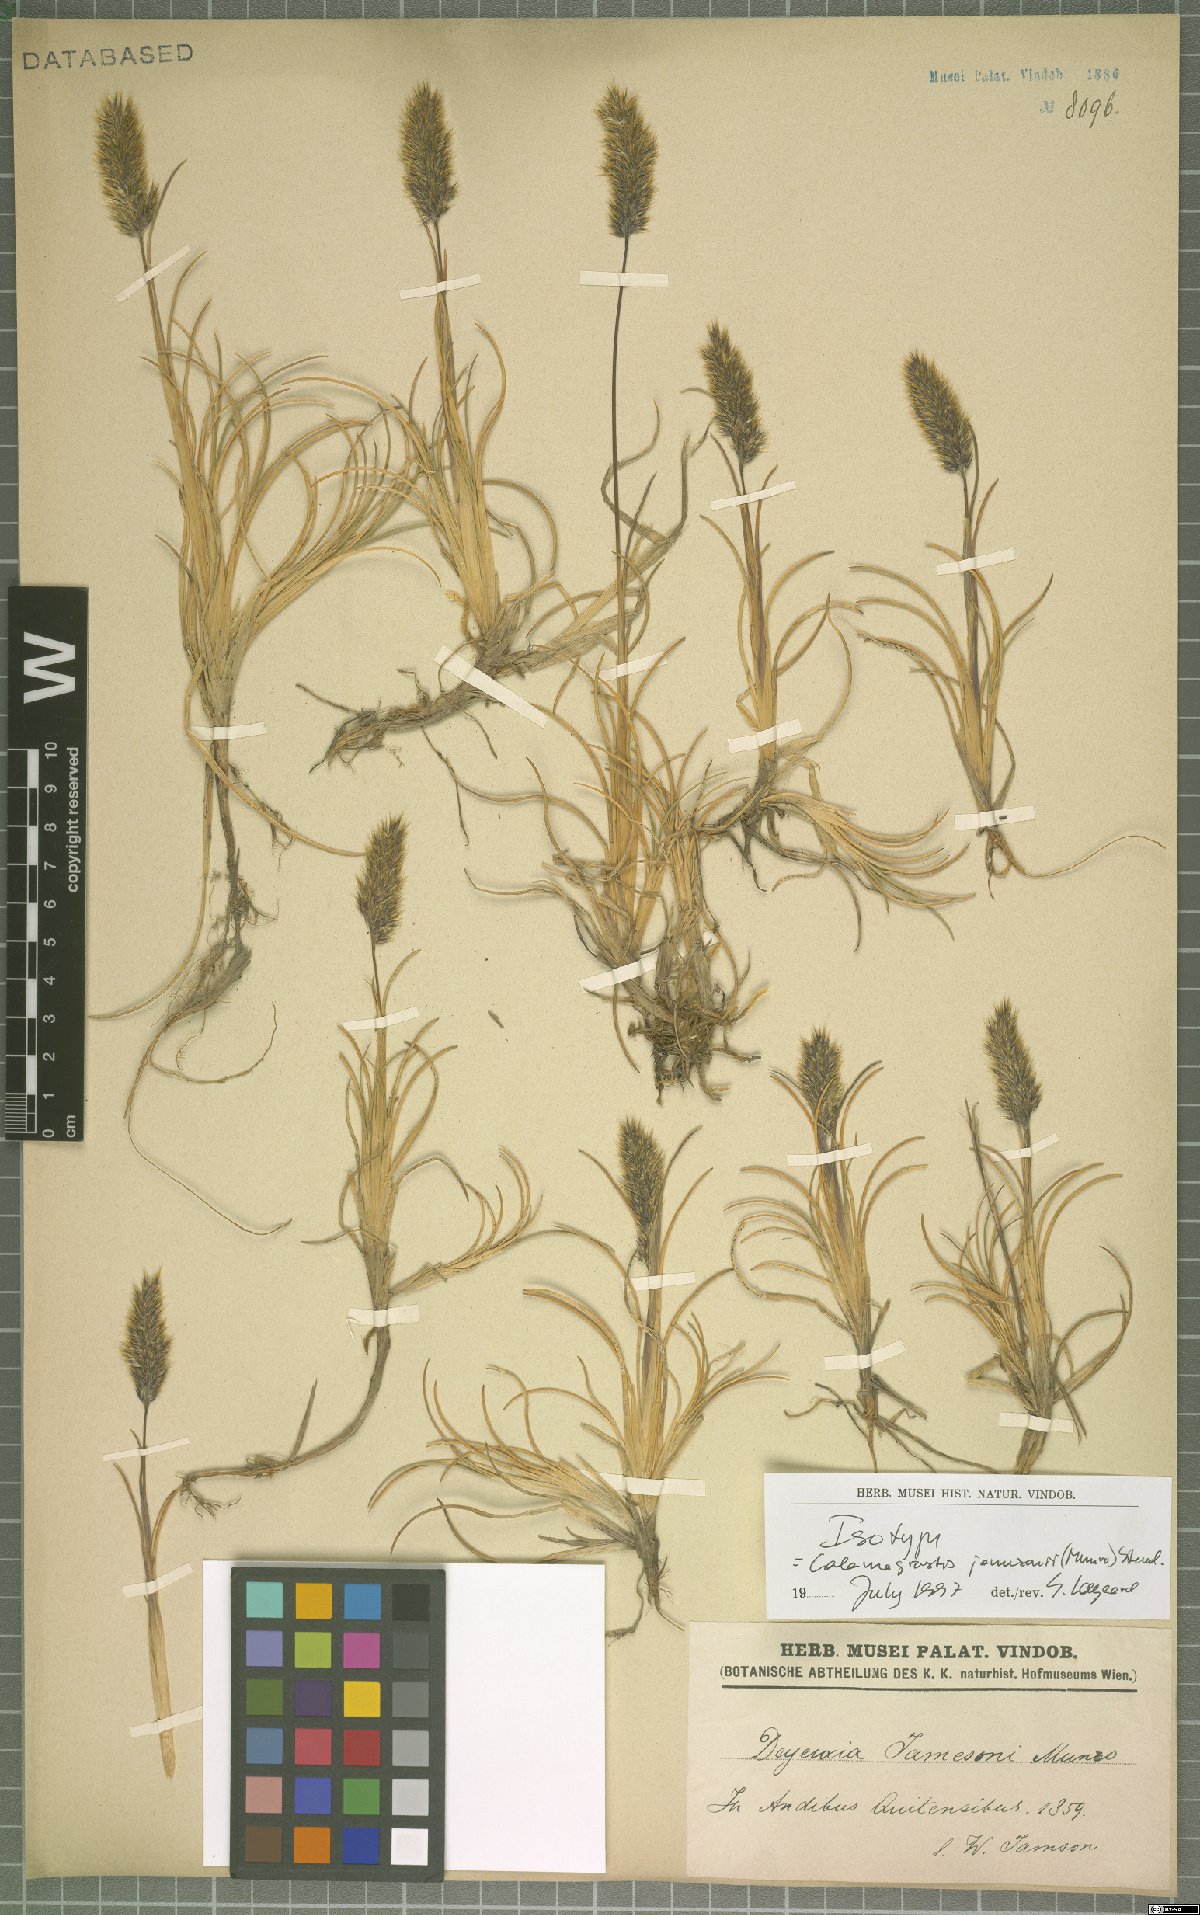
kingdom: Plantae
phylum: Tracheophyta
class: Liliopsida
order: Poales
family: Poaceae
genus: Cinnagrostis
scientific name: Cinnagrostis jamesonii
